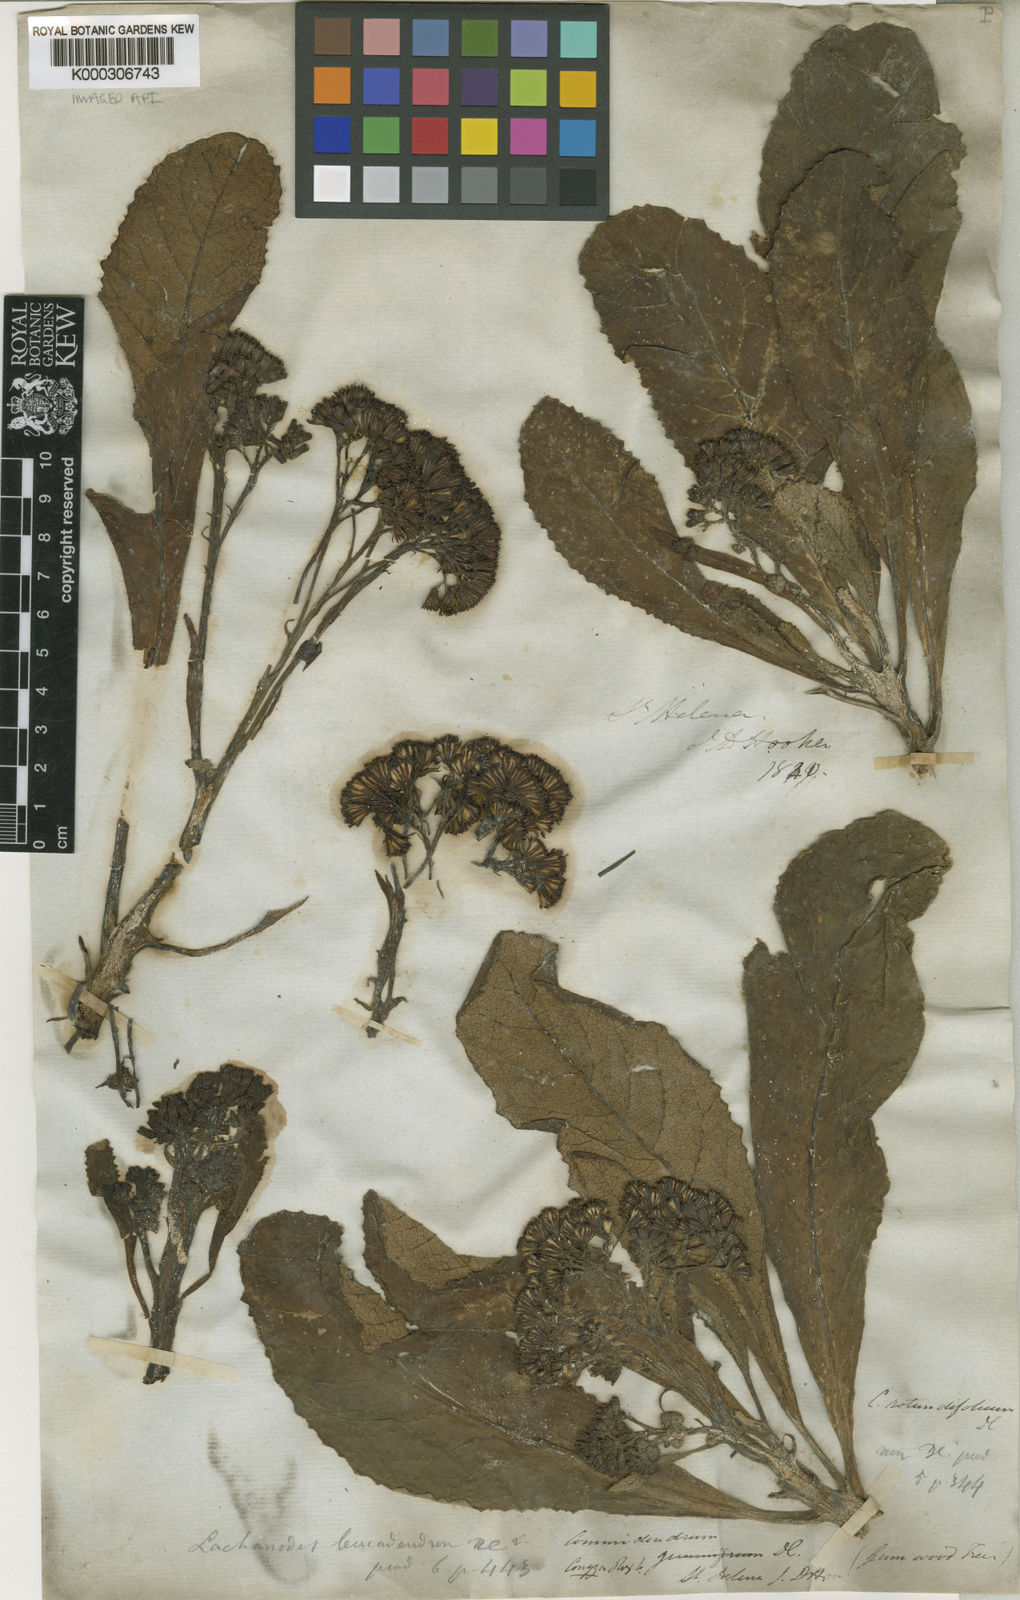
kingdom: Plantae
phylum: Tracheophyta
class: Magnoliopsida
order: Asterales
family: Asteraceae
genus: Pladaroxylon
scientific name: Pladaroxylon leucadendron
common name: He cabbage tree
